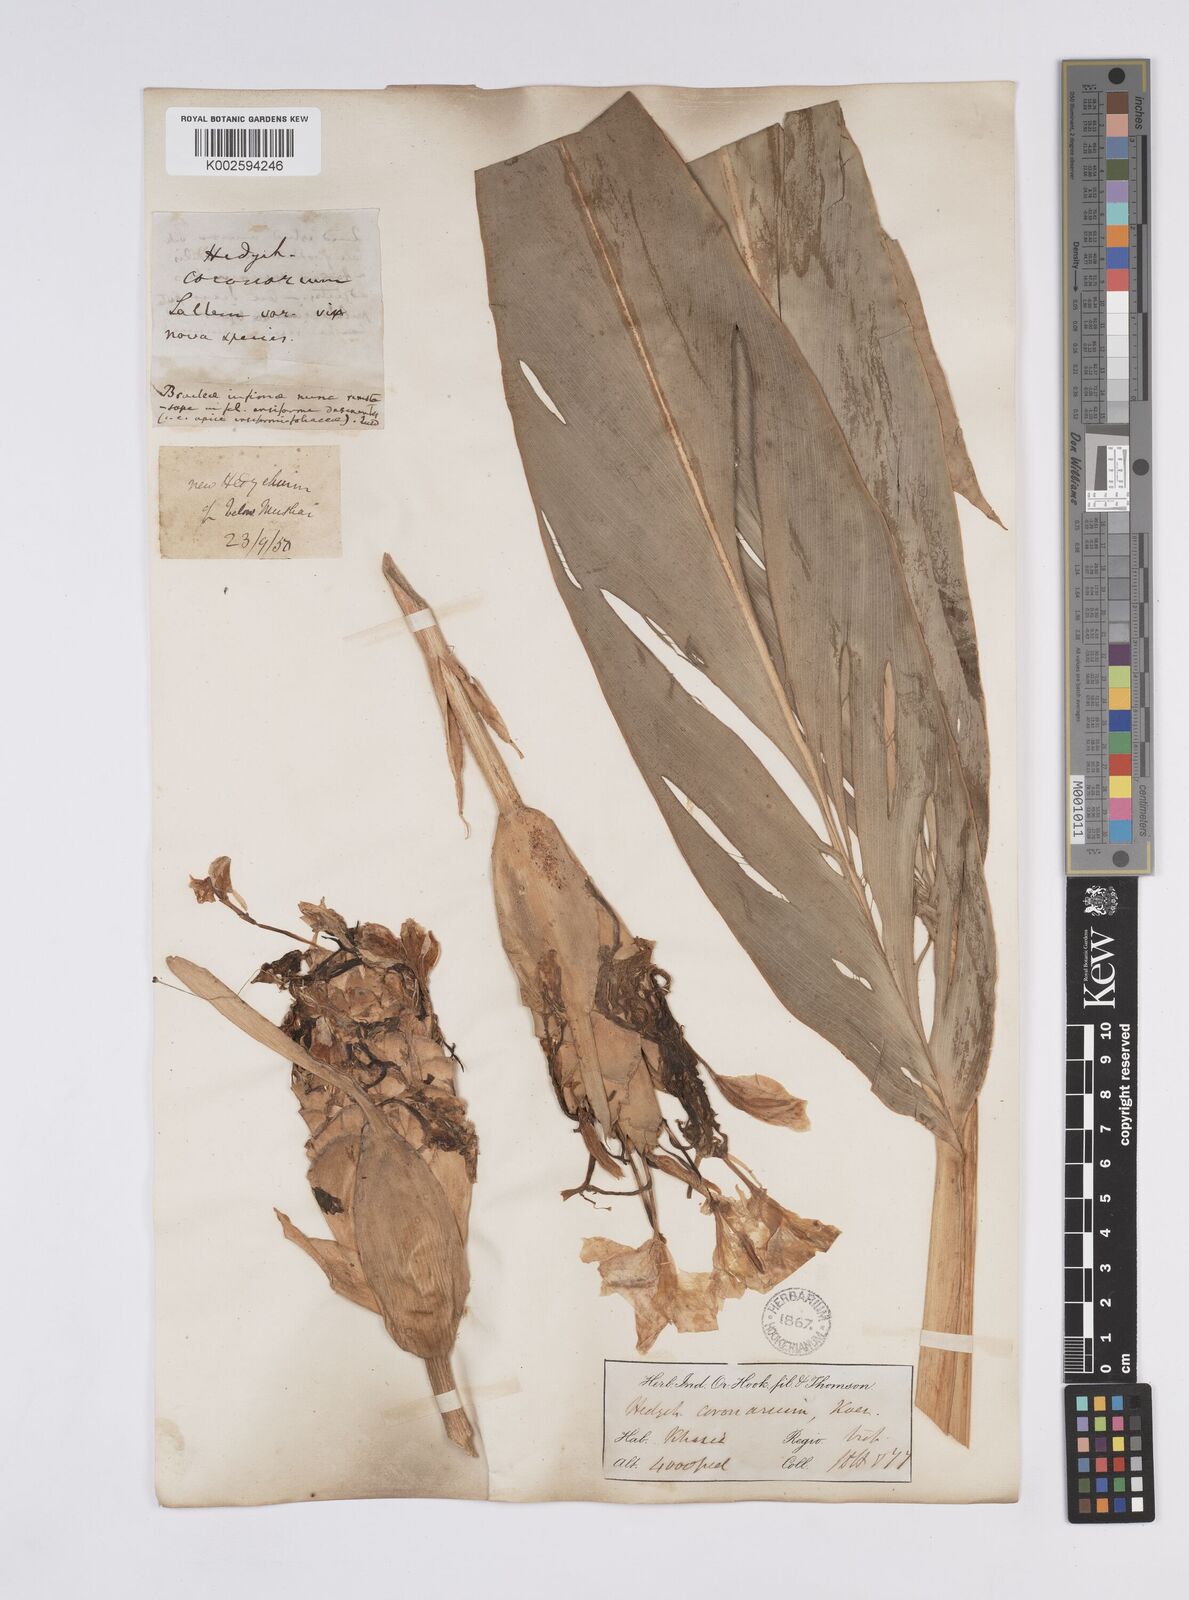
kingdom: Plantae
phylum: Tracheophyta
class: Liliopsida
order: Zingiberales
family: Zingiberaceae
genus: Hedychium
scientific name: Hedychium coronarium
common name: White garland-lily
